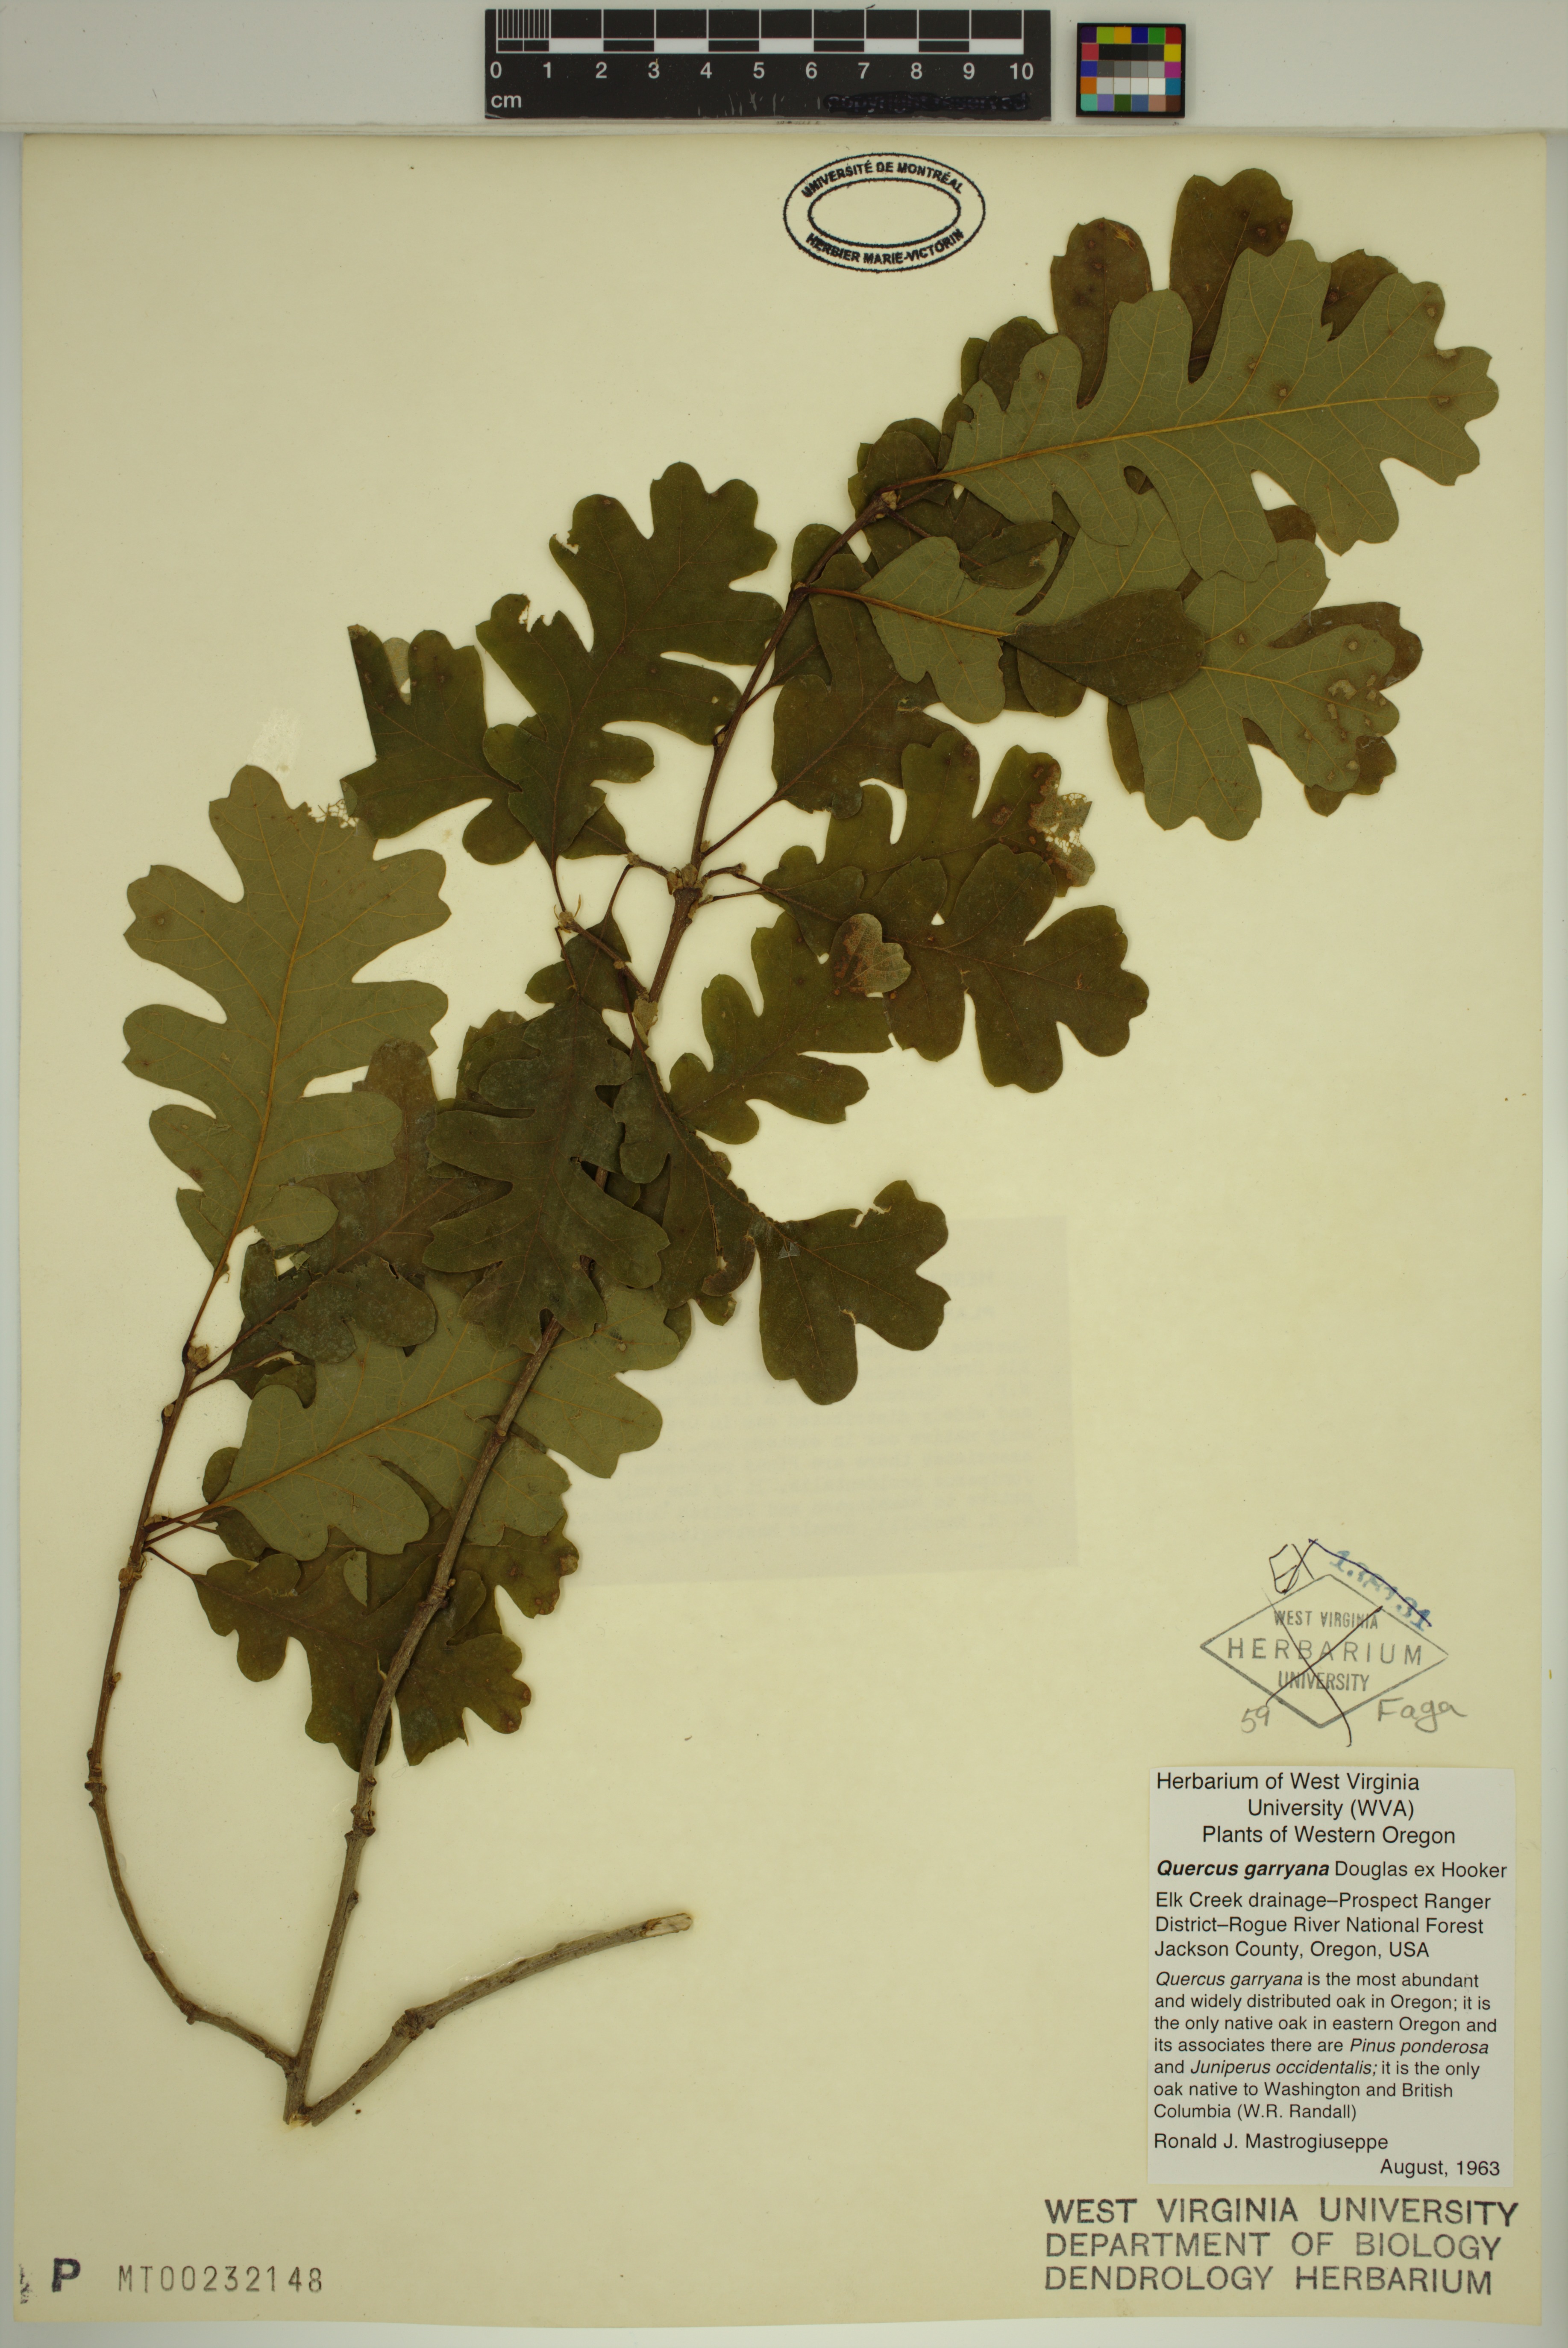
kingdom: Plantae
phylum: Tracheophyta
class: Magnoliopsida
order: Fagales
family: Fagaceae
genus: Quercus
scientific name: Quercus garryana
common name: Garry oak
